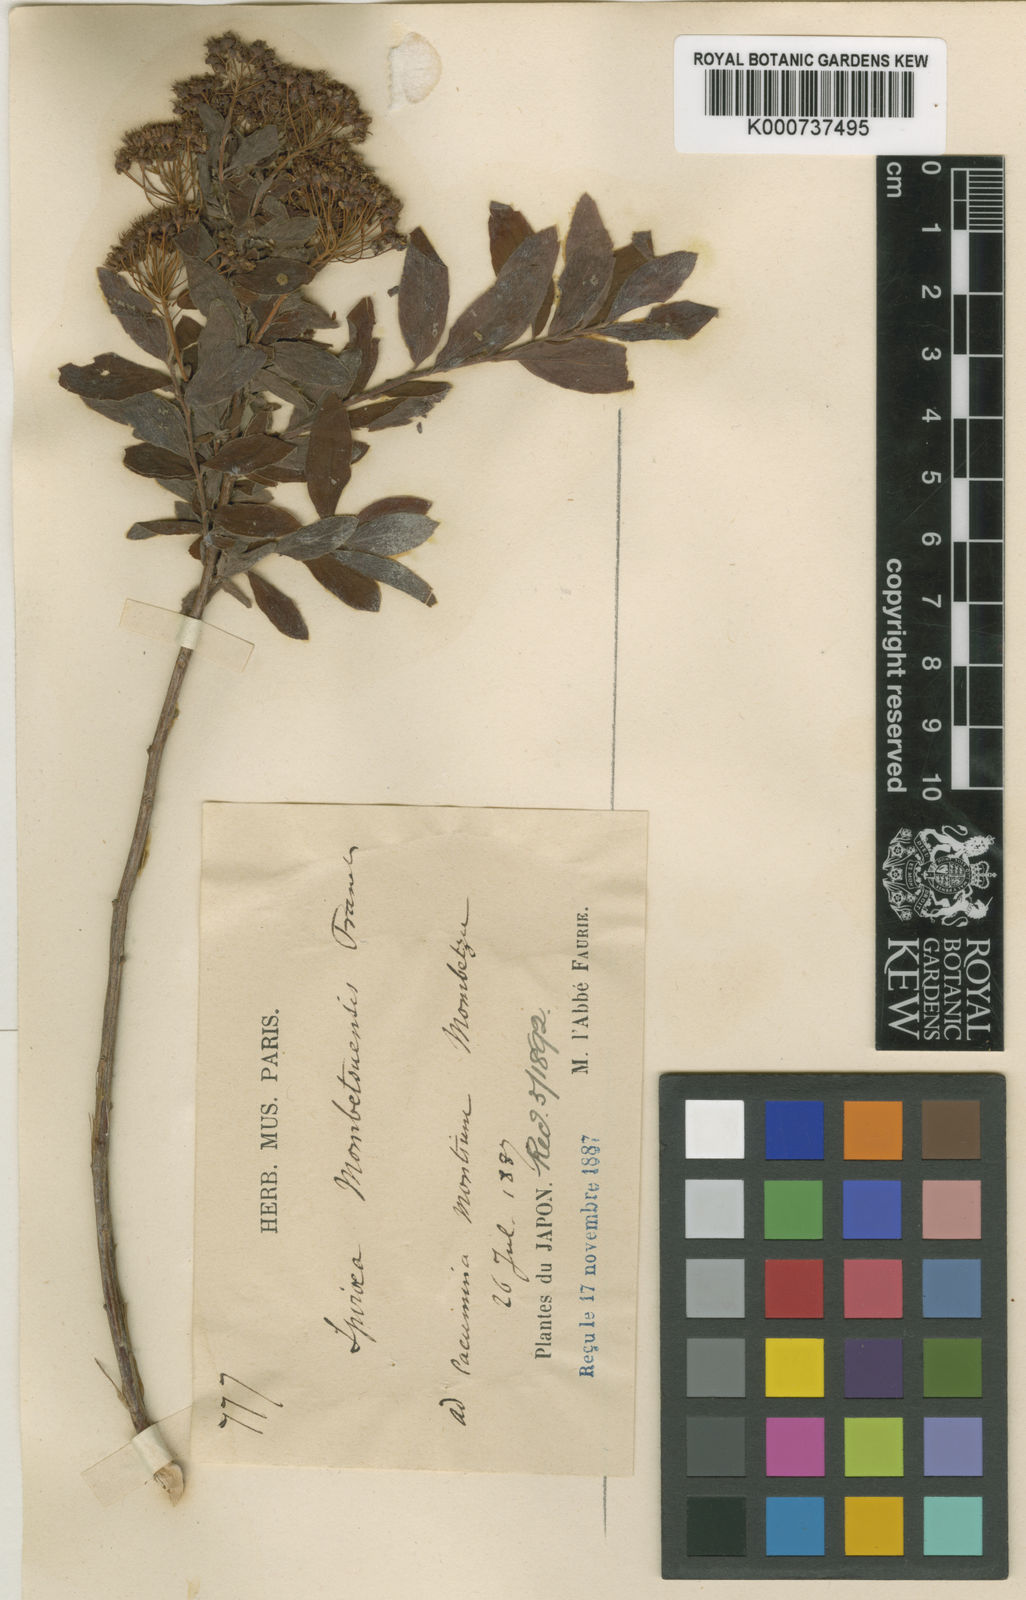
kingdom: Plantae
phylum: Tracheophyta
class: Magnoliopsida
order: Rosales
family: Rosaceae
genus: Spiraea
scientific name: Spiraea
